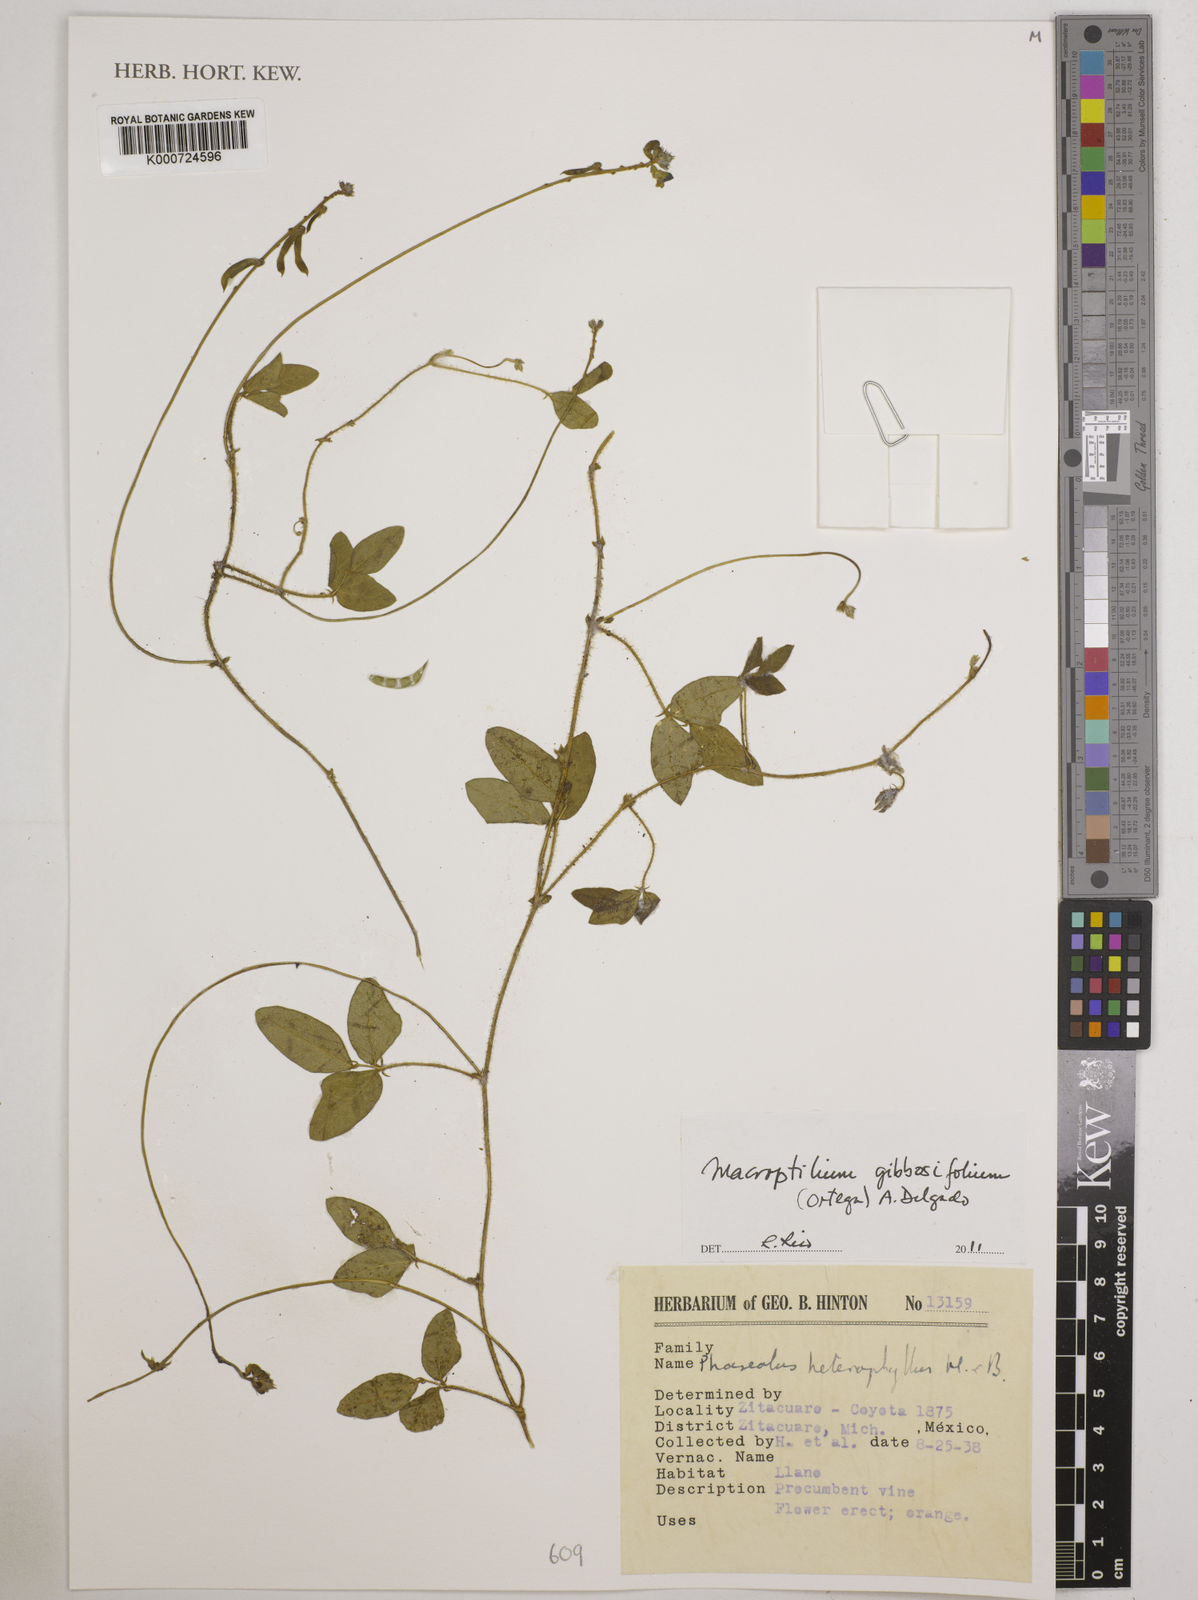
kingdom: Plantae
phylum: Tracheophyta
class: Magnoliopsida
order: Fabales
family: Fabaceae
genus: Macroptilium
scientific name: Macroptilium gibbosifolium
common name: Variableleaf bushbean
